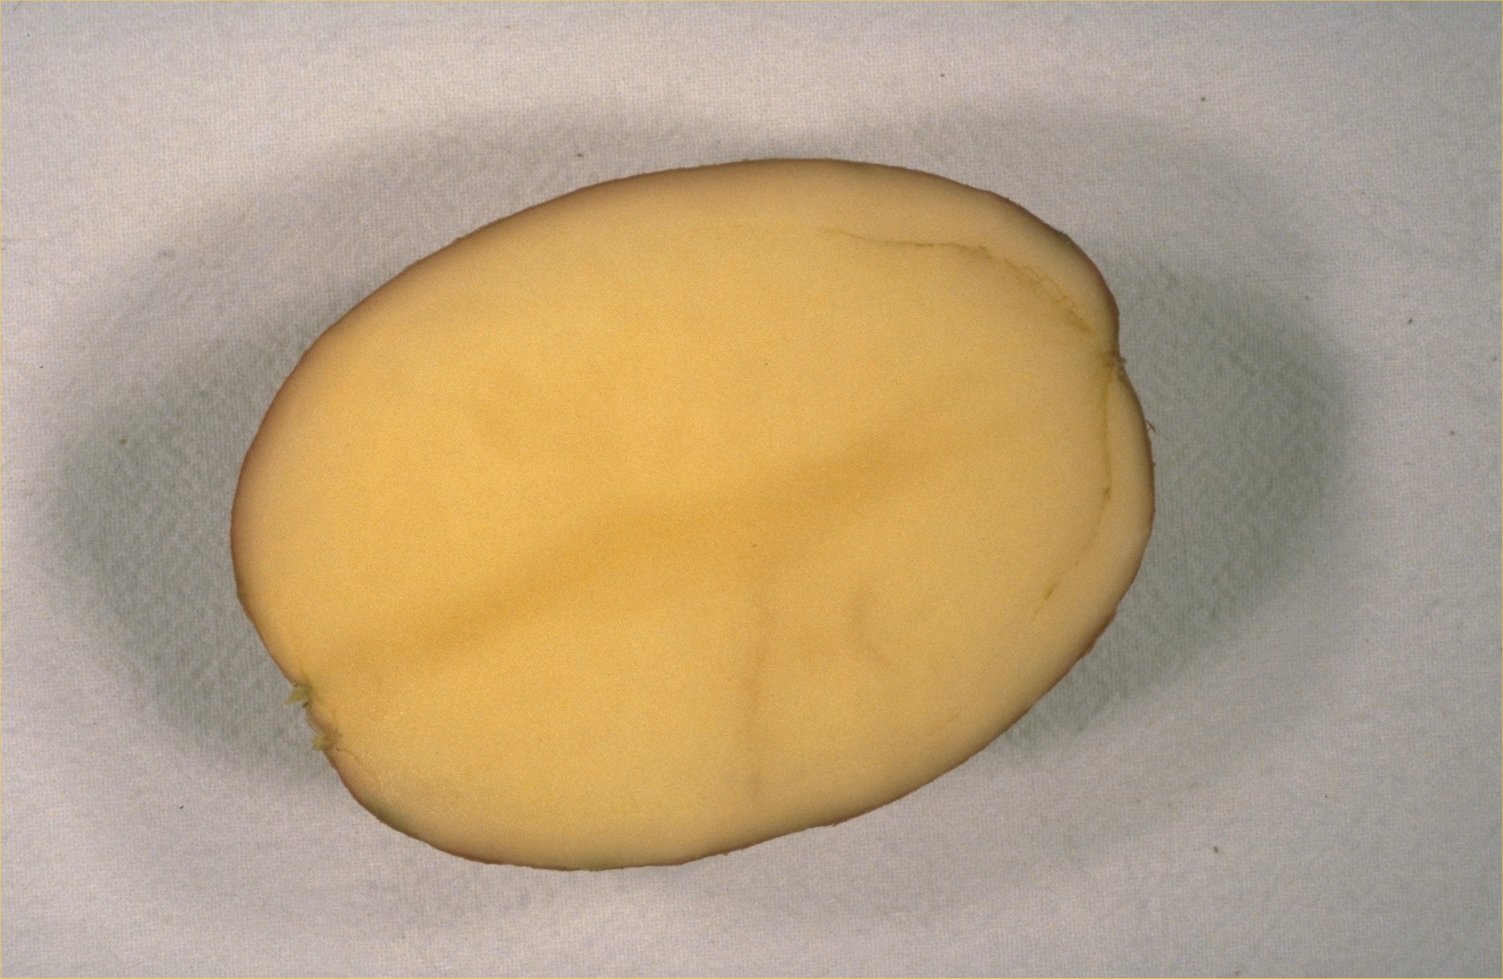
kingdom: Plantae
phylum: Tracheophyta
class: Magnoliopsida
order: Solanales
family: Solanaceae
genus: Solanum
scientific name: Solanum tuberosum
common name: Potato
